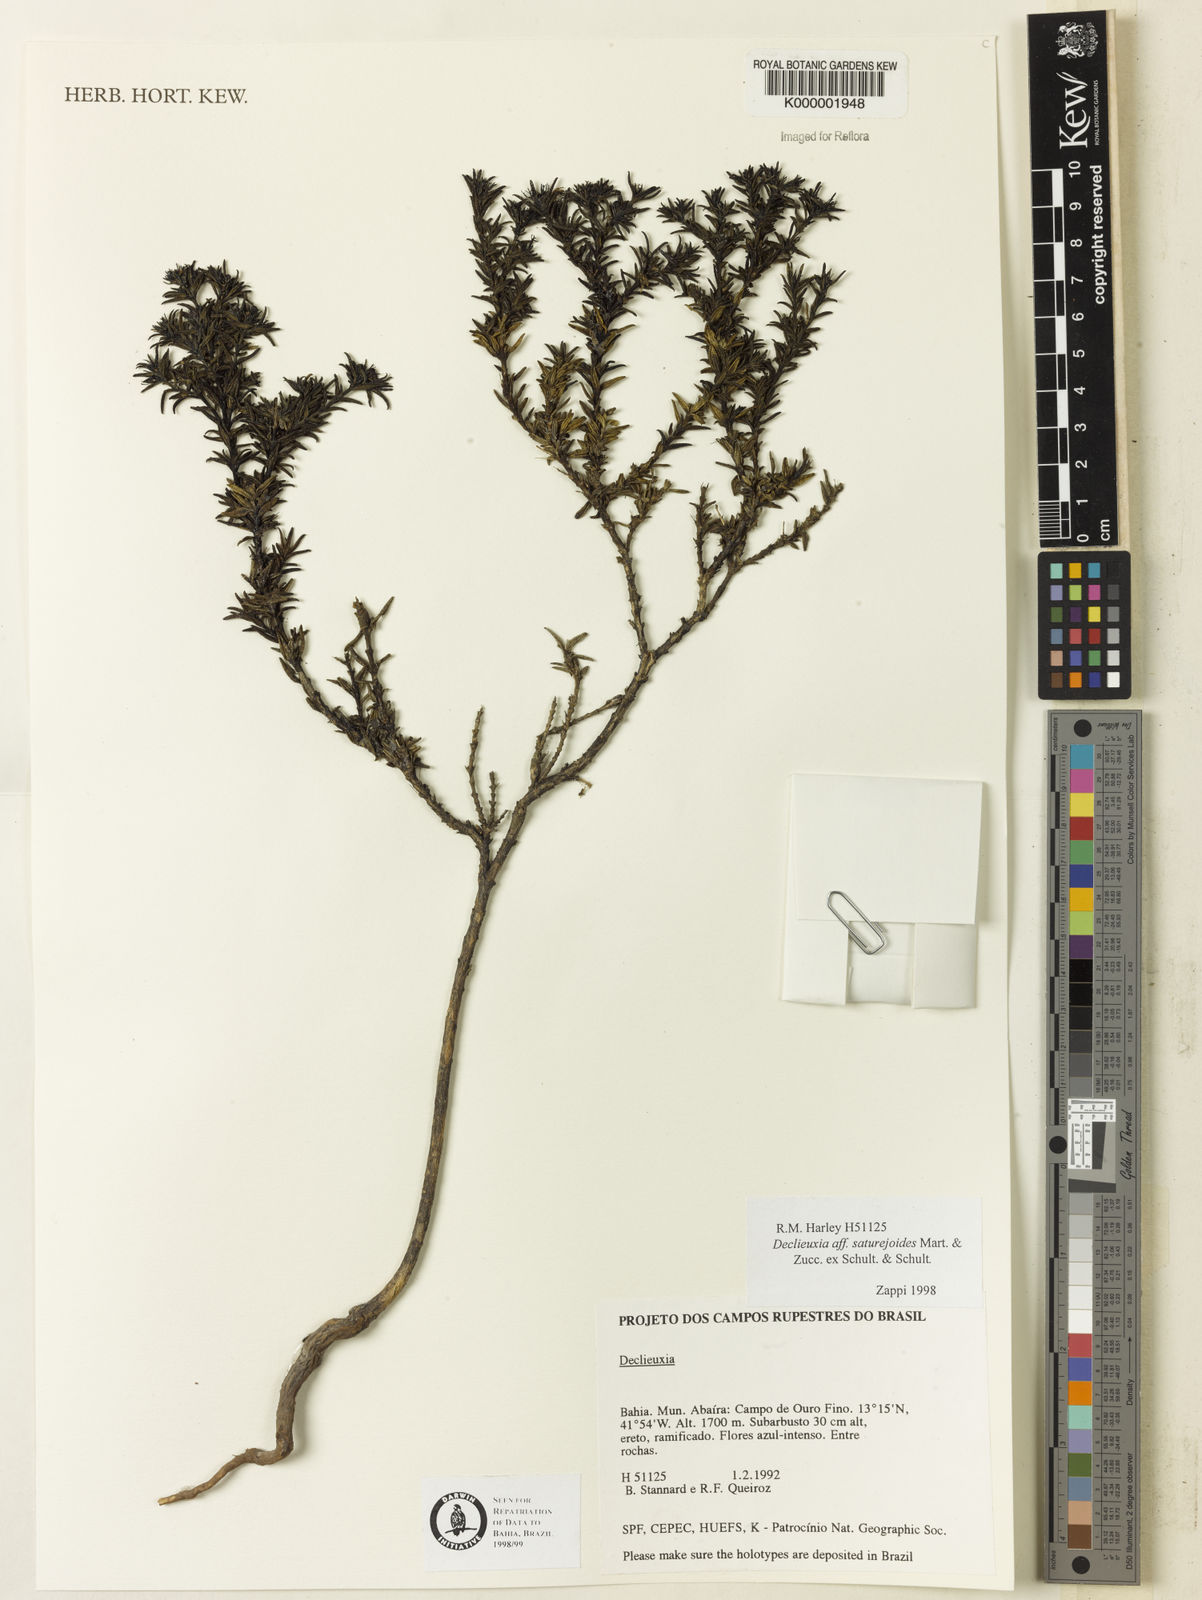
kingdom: Plantae
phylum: Tracheophyta
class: Magnoliopsida
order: Gentianales
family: Rubiaceae
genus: Declieuxia
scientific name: Declieuxia
